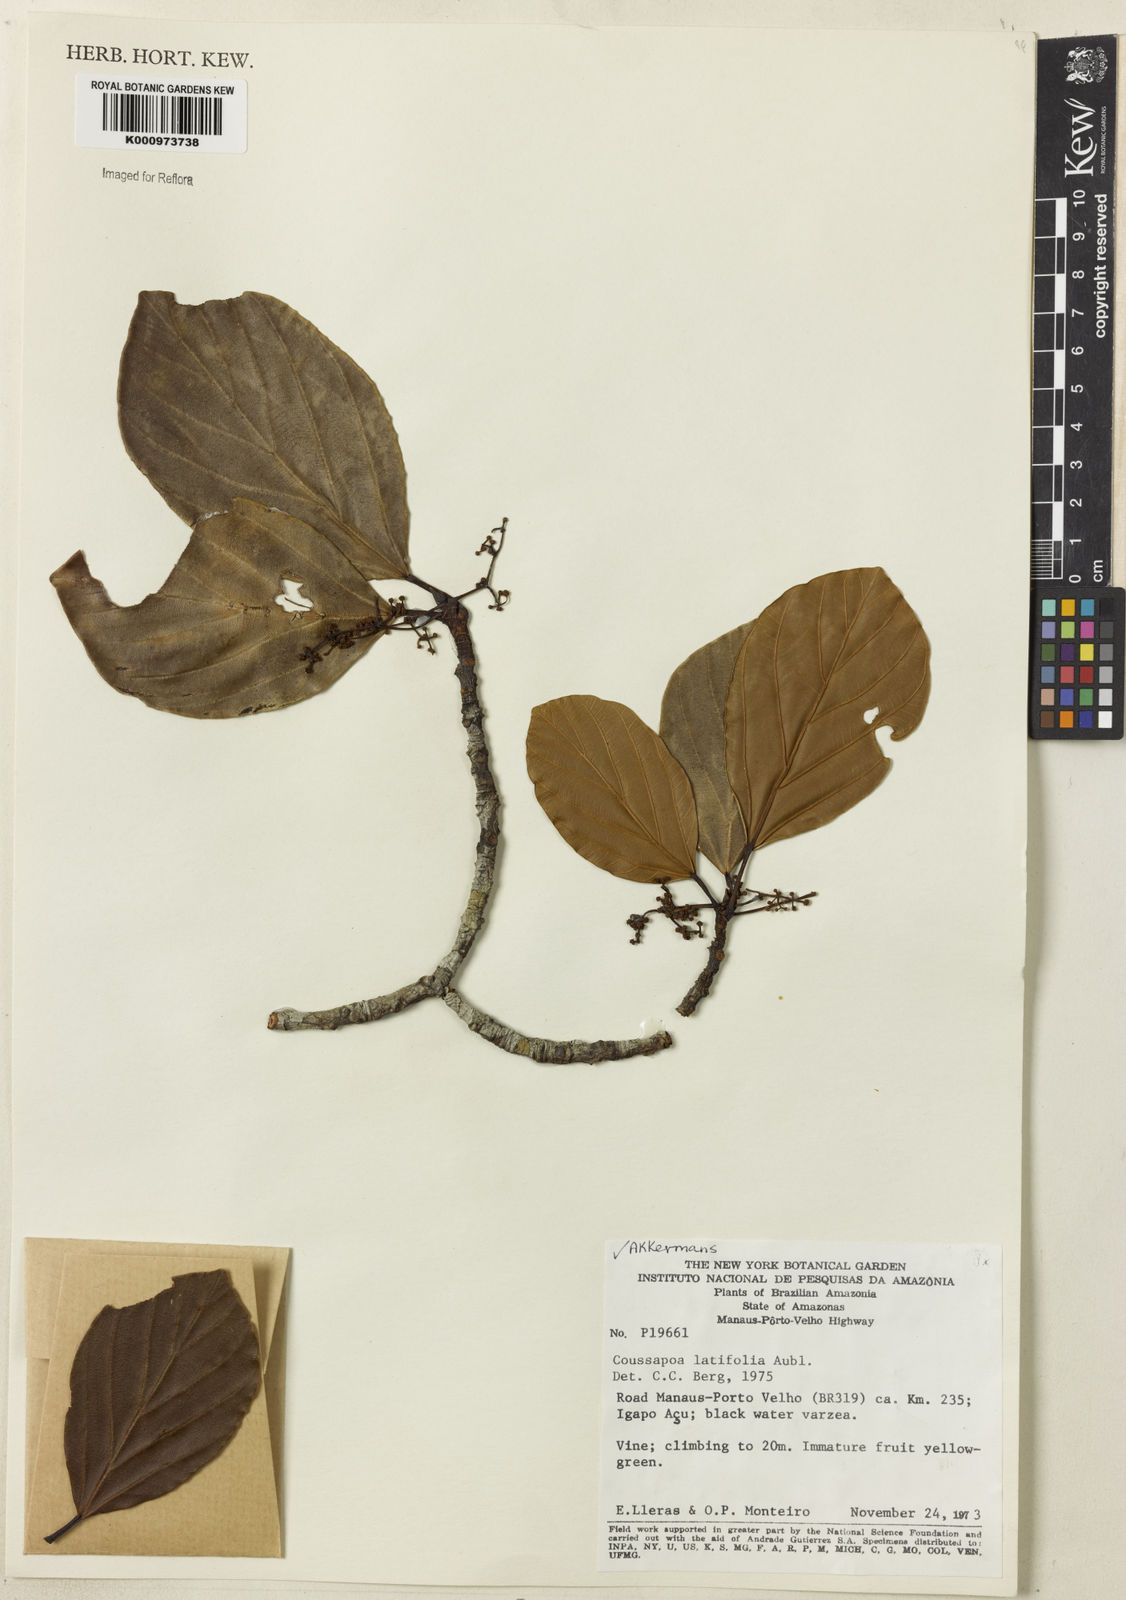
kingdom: Plantae
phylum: Tracheophyta
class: Magnoliopsida
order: Rosales
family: Urticaceae
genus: Coussapoa
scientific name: Coussapoa
